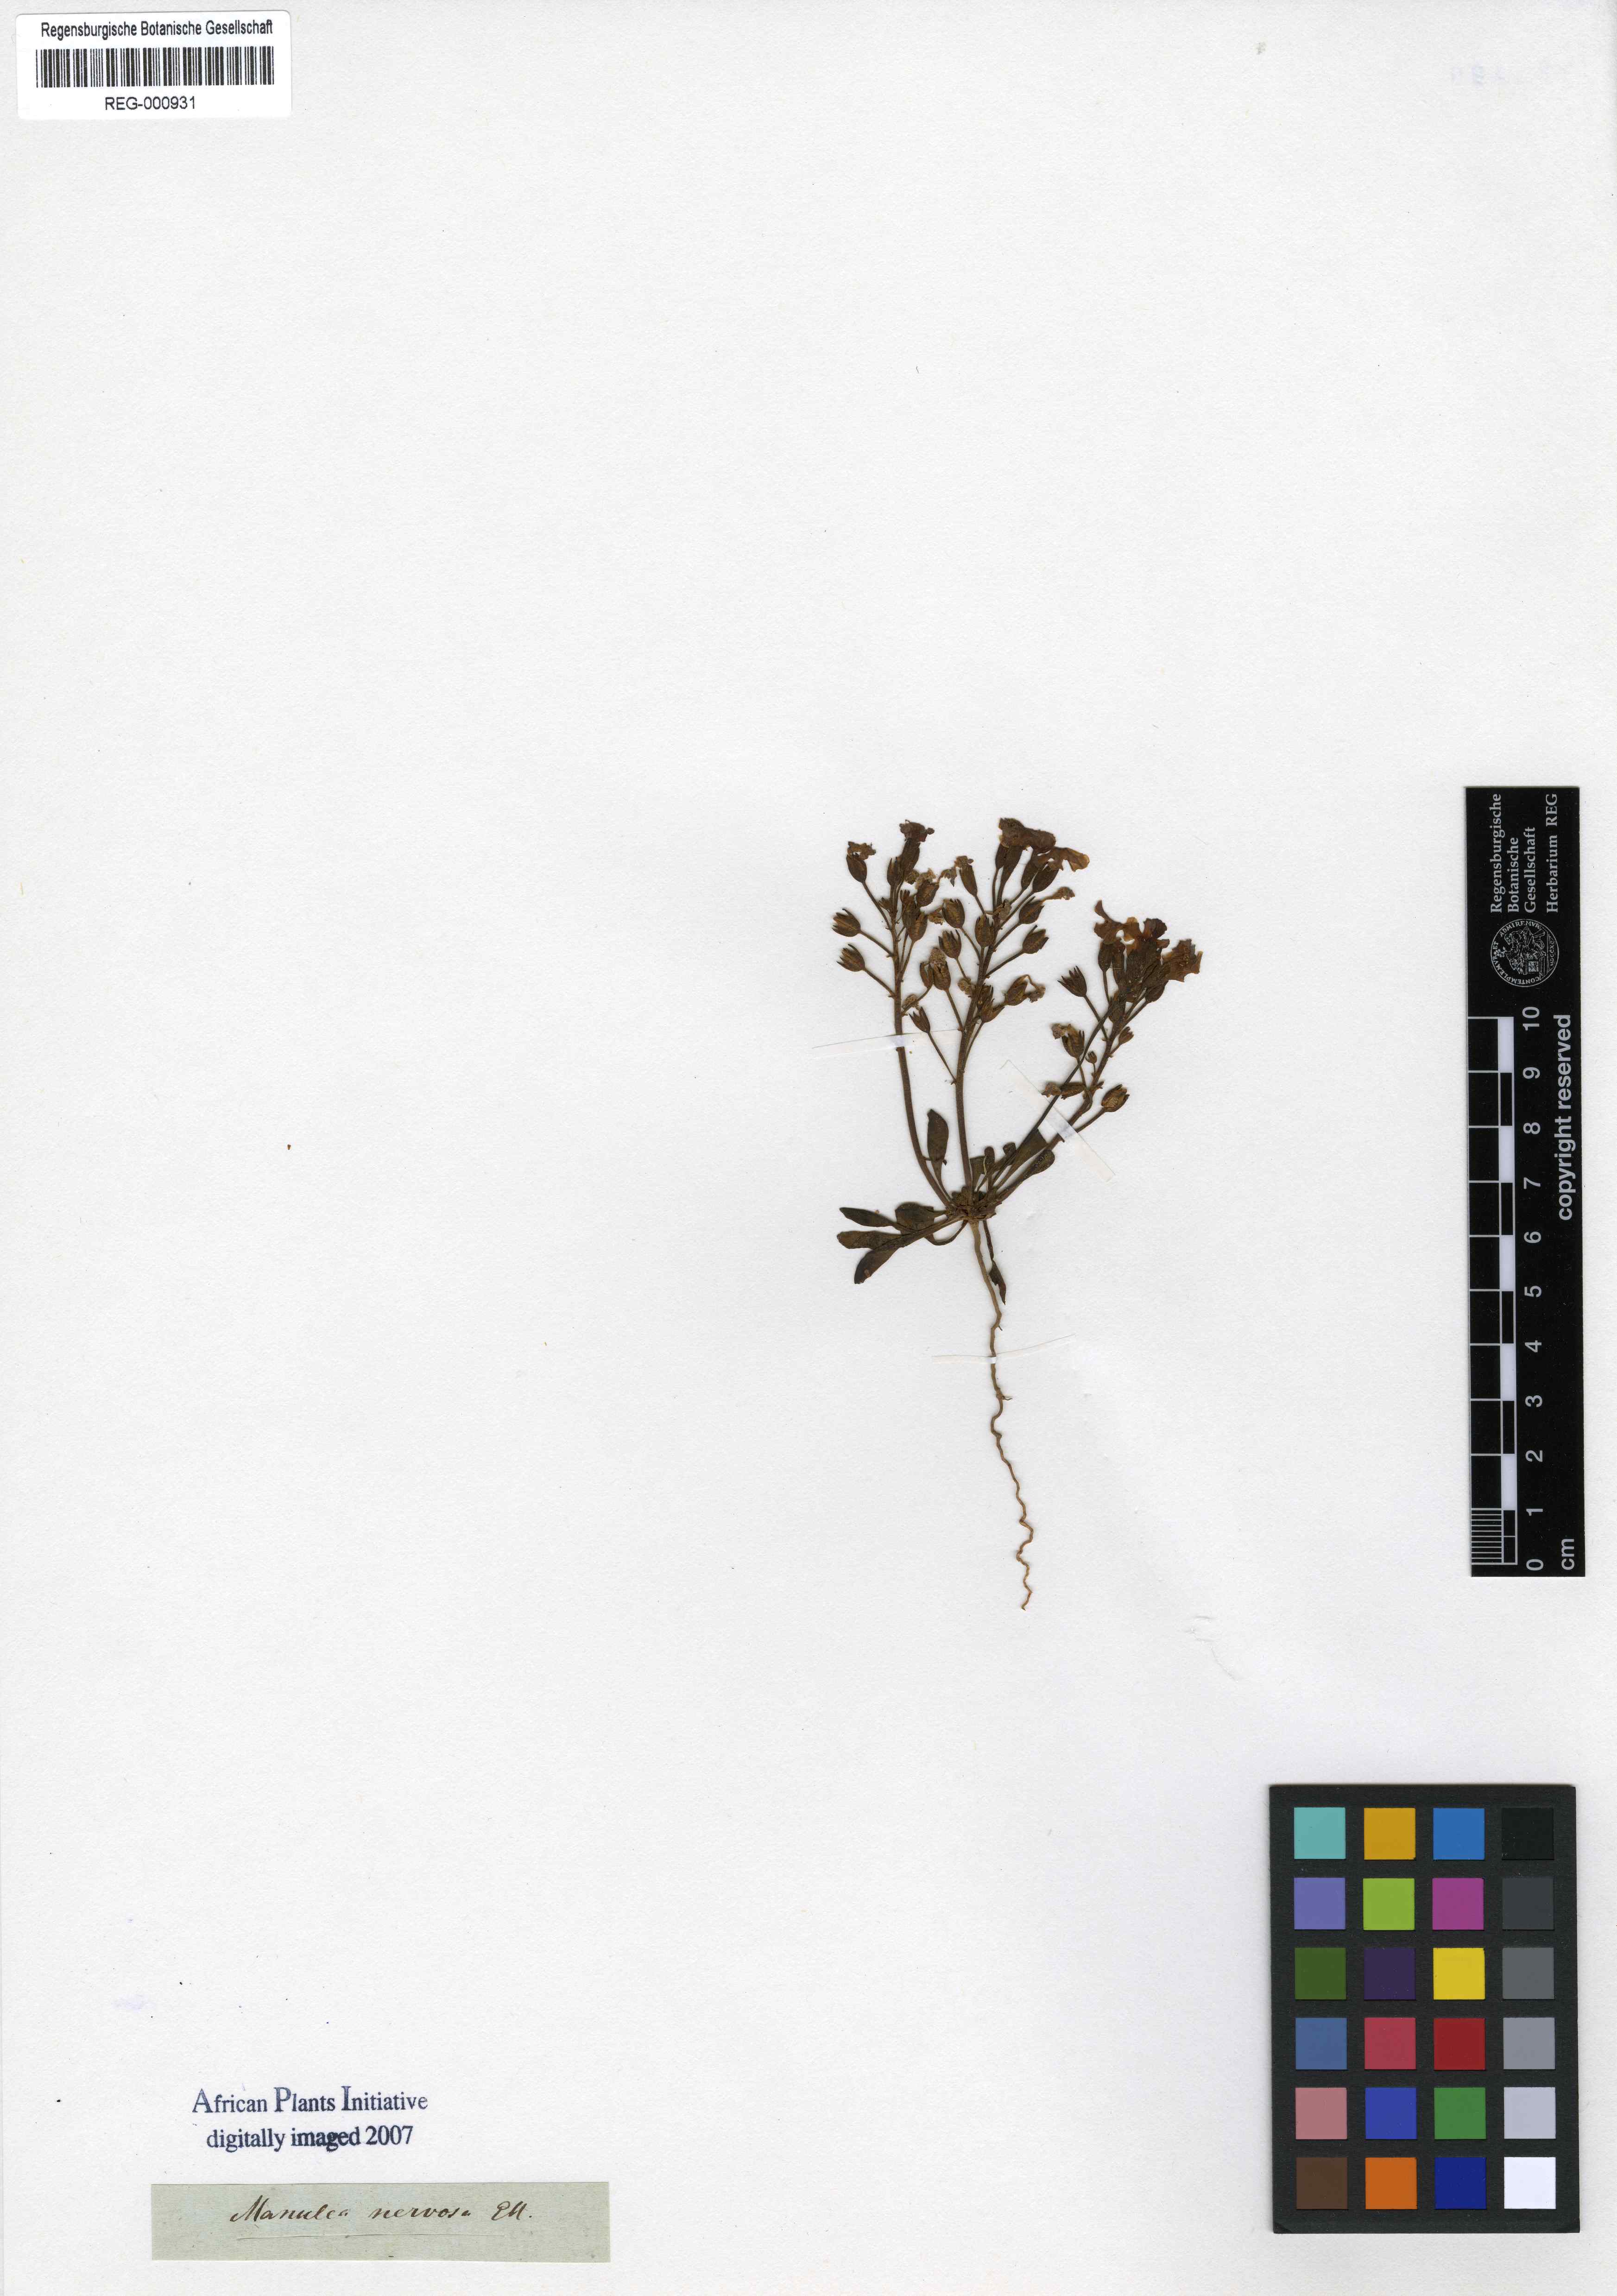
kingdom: Plantae
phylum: Tracheophyta
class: Magnoliopsida
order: Lamiales
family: Scrophulariaceae
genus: Manulea
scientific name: Manulea nervosa
